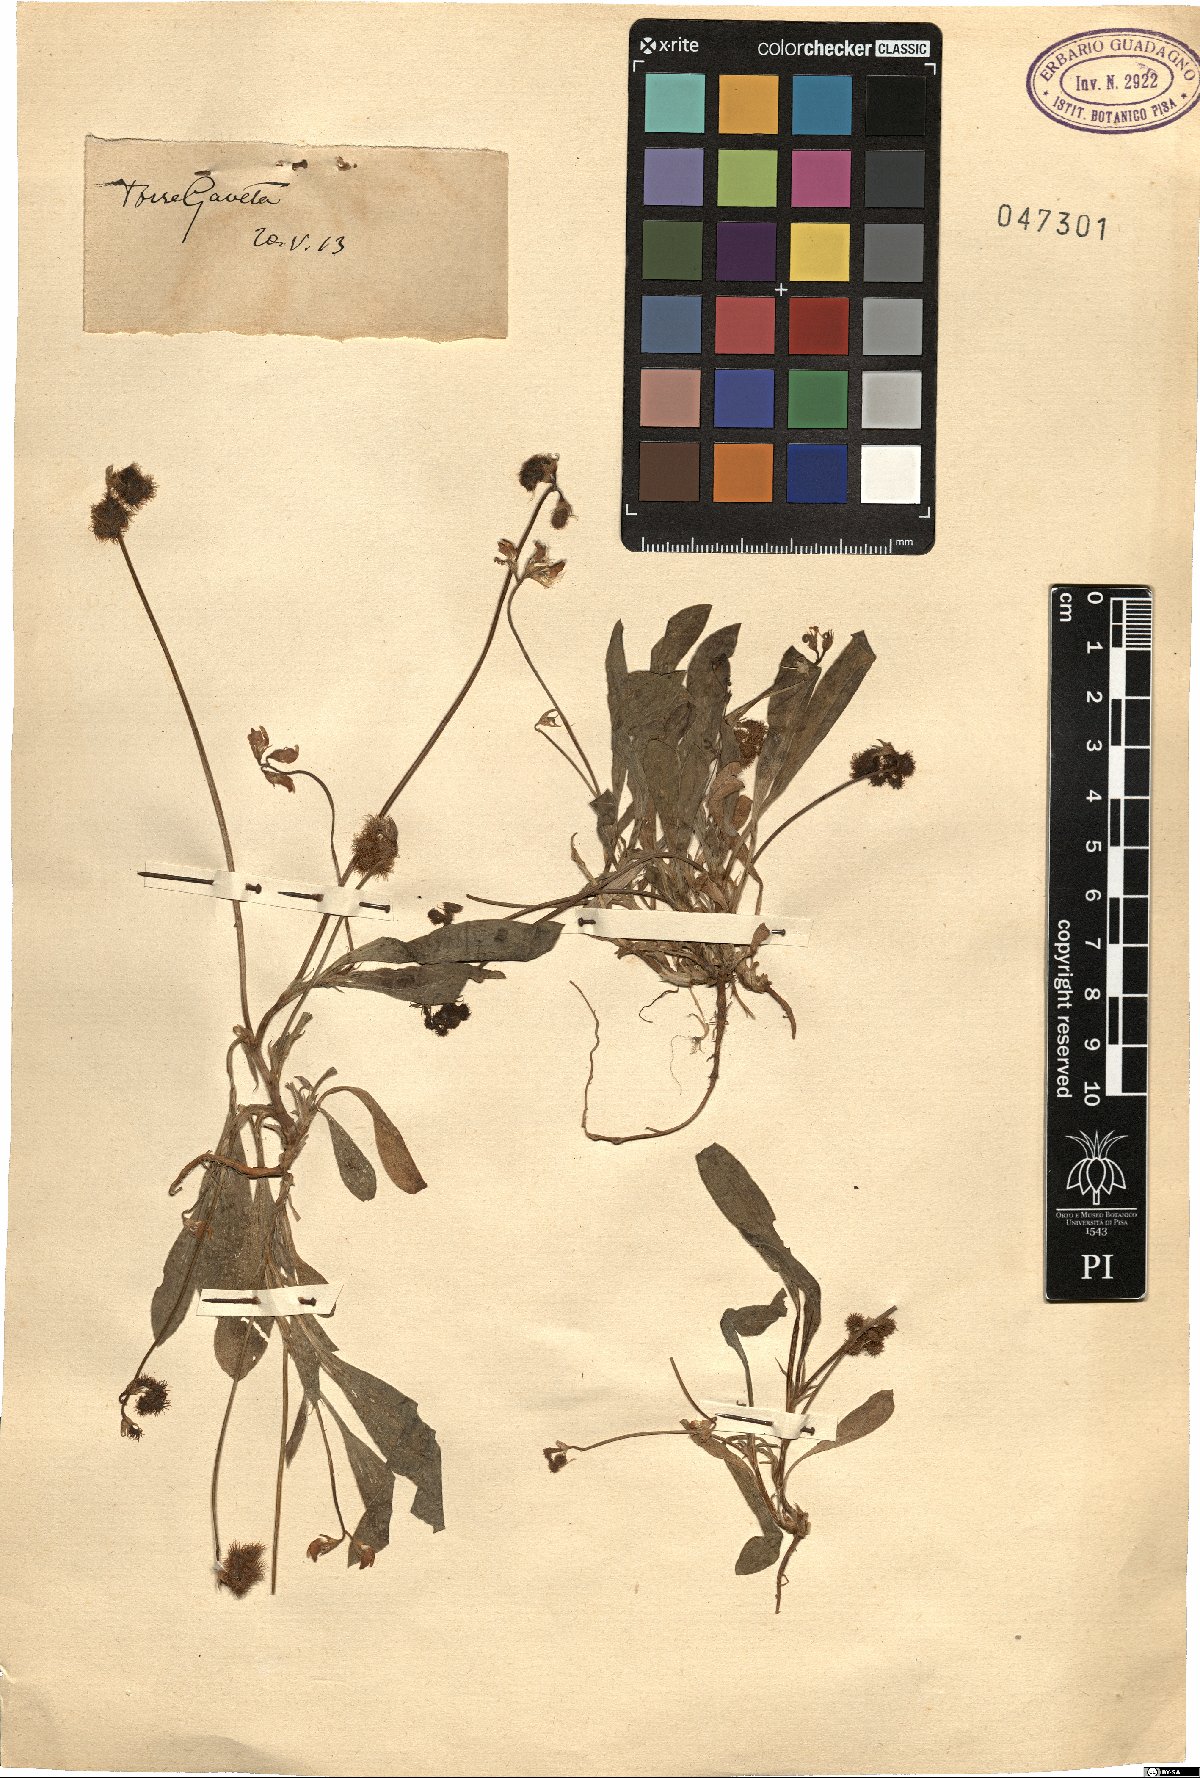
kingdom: Plantae
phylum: Tracheophyta
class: Magnoliopsida
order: Fabales
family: Fabaceae
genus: Scorpiurus
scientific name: Scorpiurus
